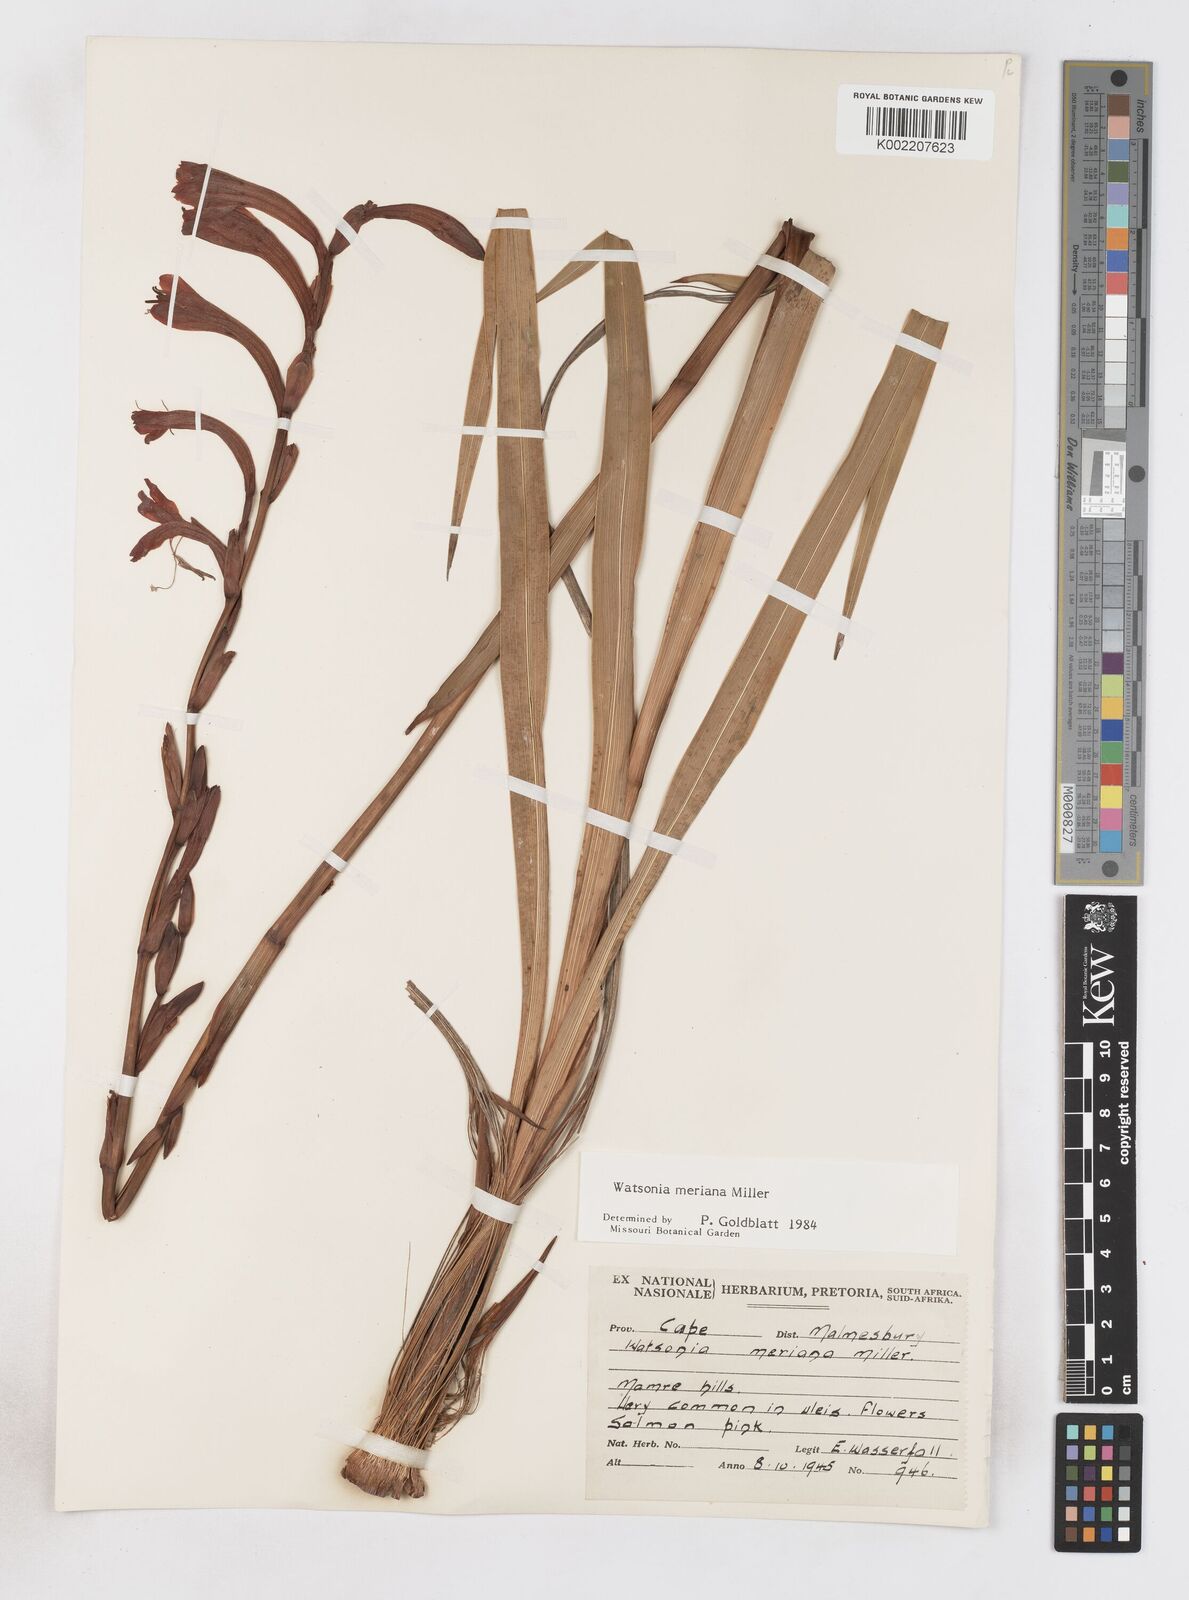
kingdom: Plantae
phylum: Tracheophyta
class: Liliopsida
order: Asparagales
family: Iridaceae
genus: Watsonia
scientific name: Watsonia meriana
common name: Bulbil bugle-lily
